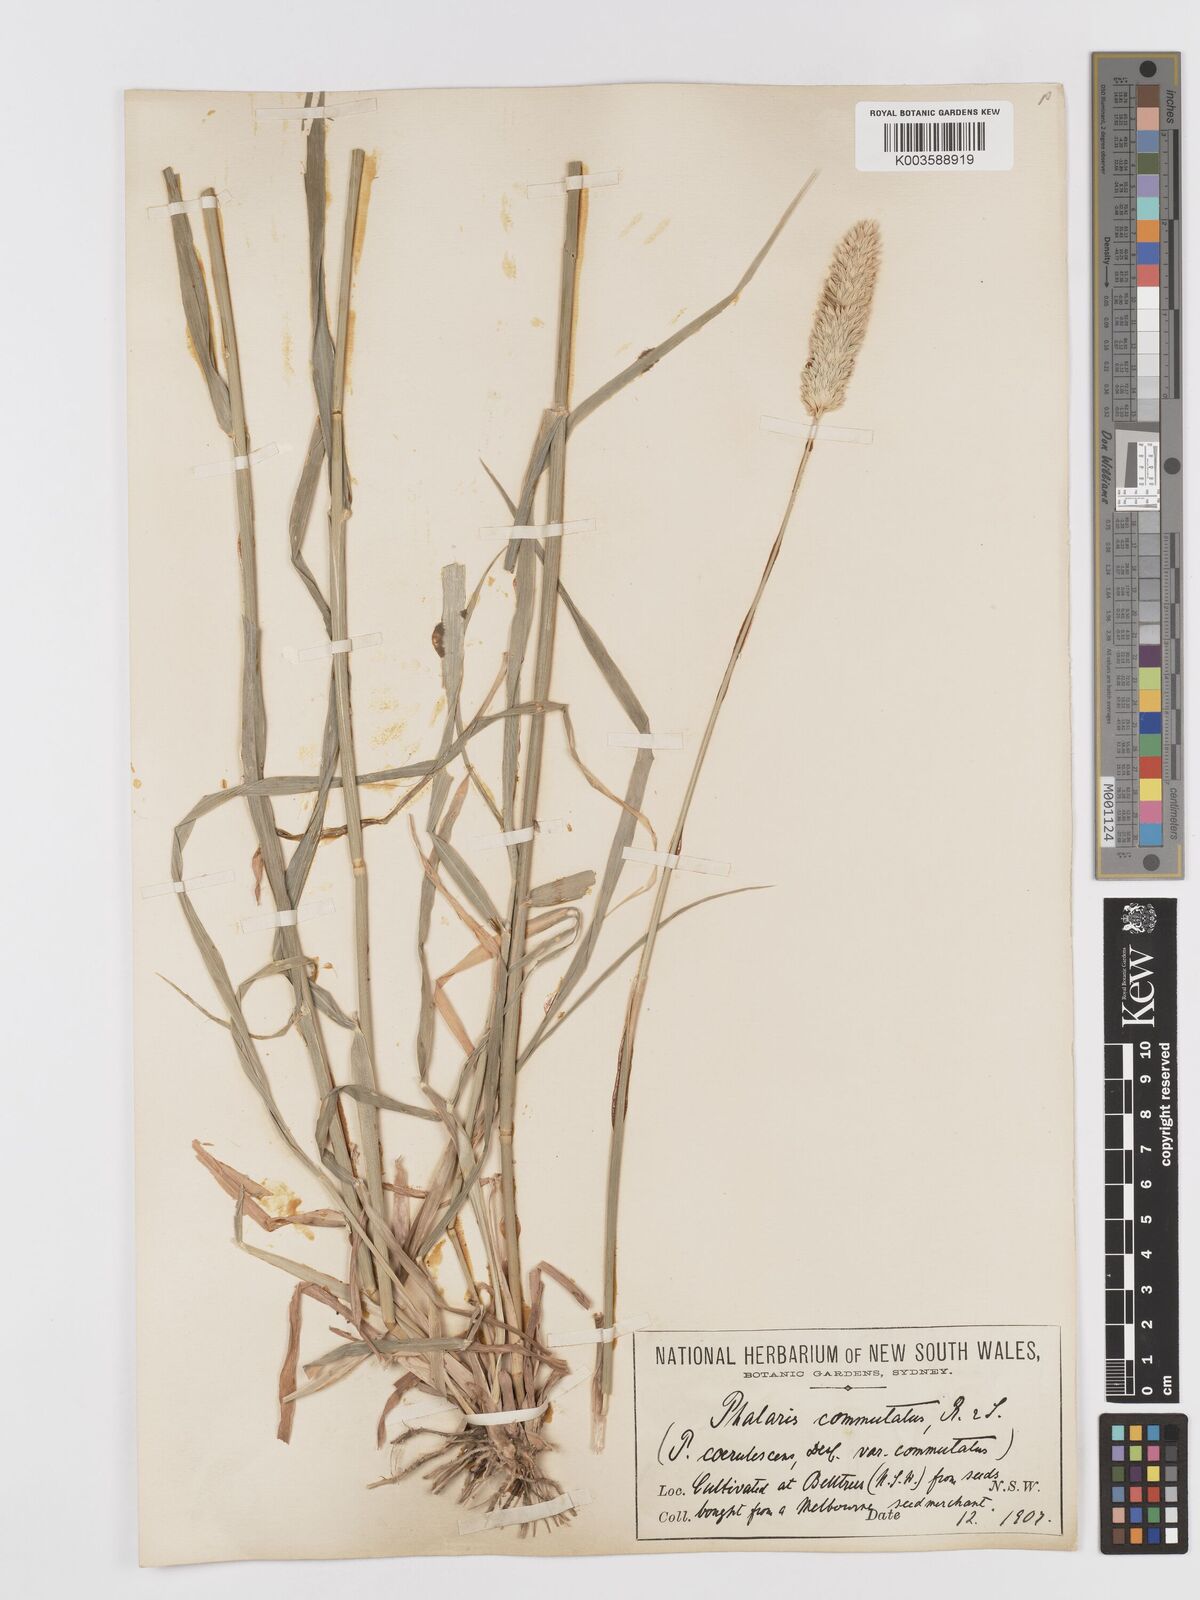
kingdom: Plantae
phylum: Tracheophyta
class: Liliopsida
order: Poales
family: Poaceae
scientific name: Poaceae
